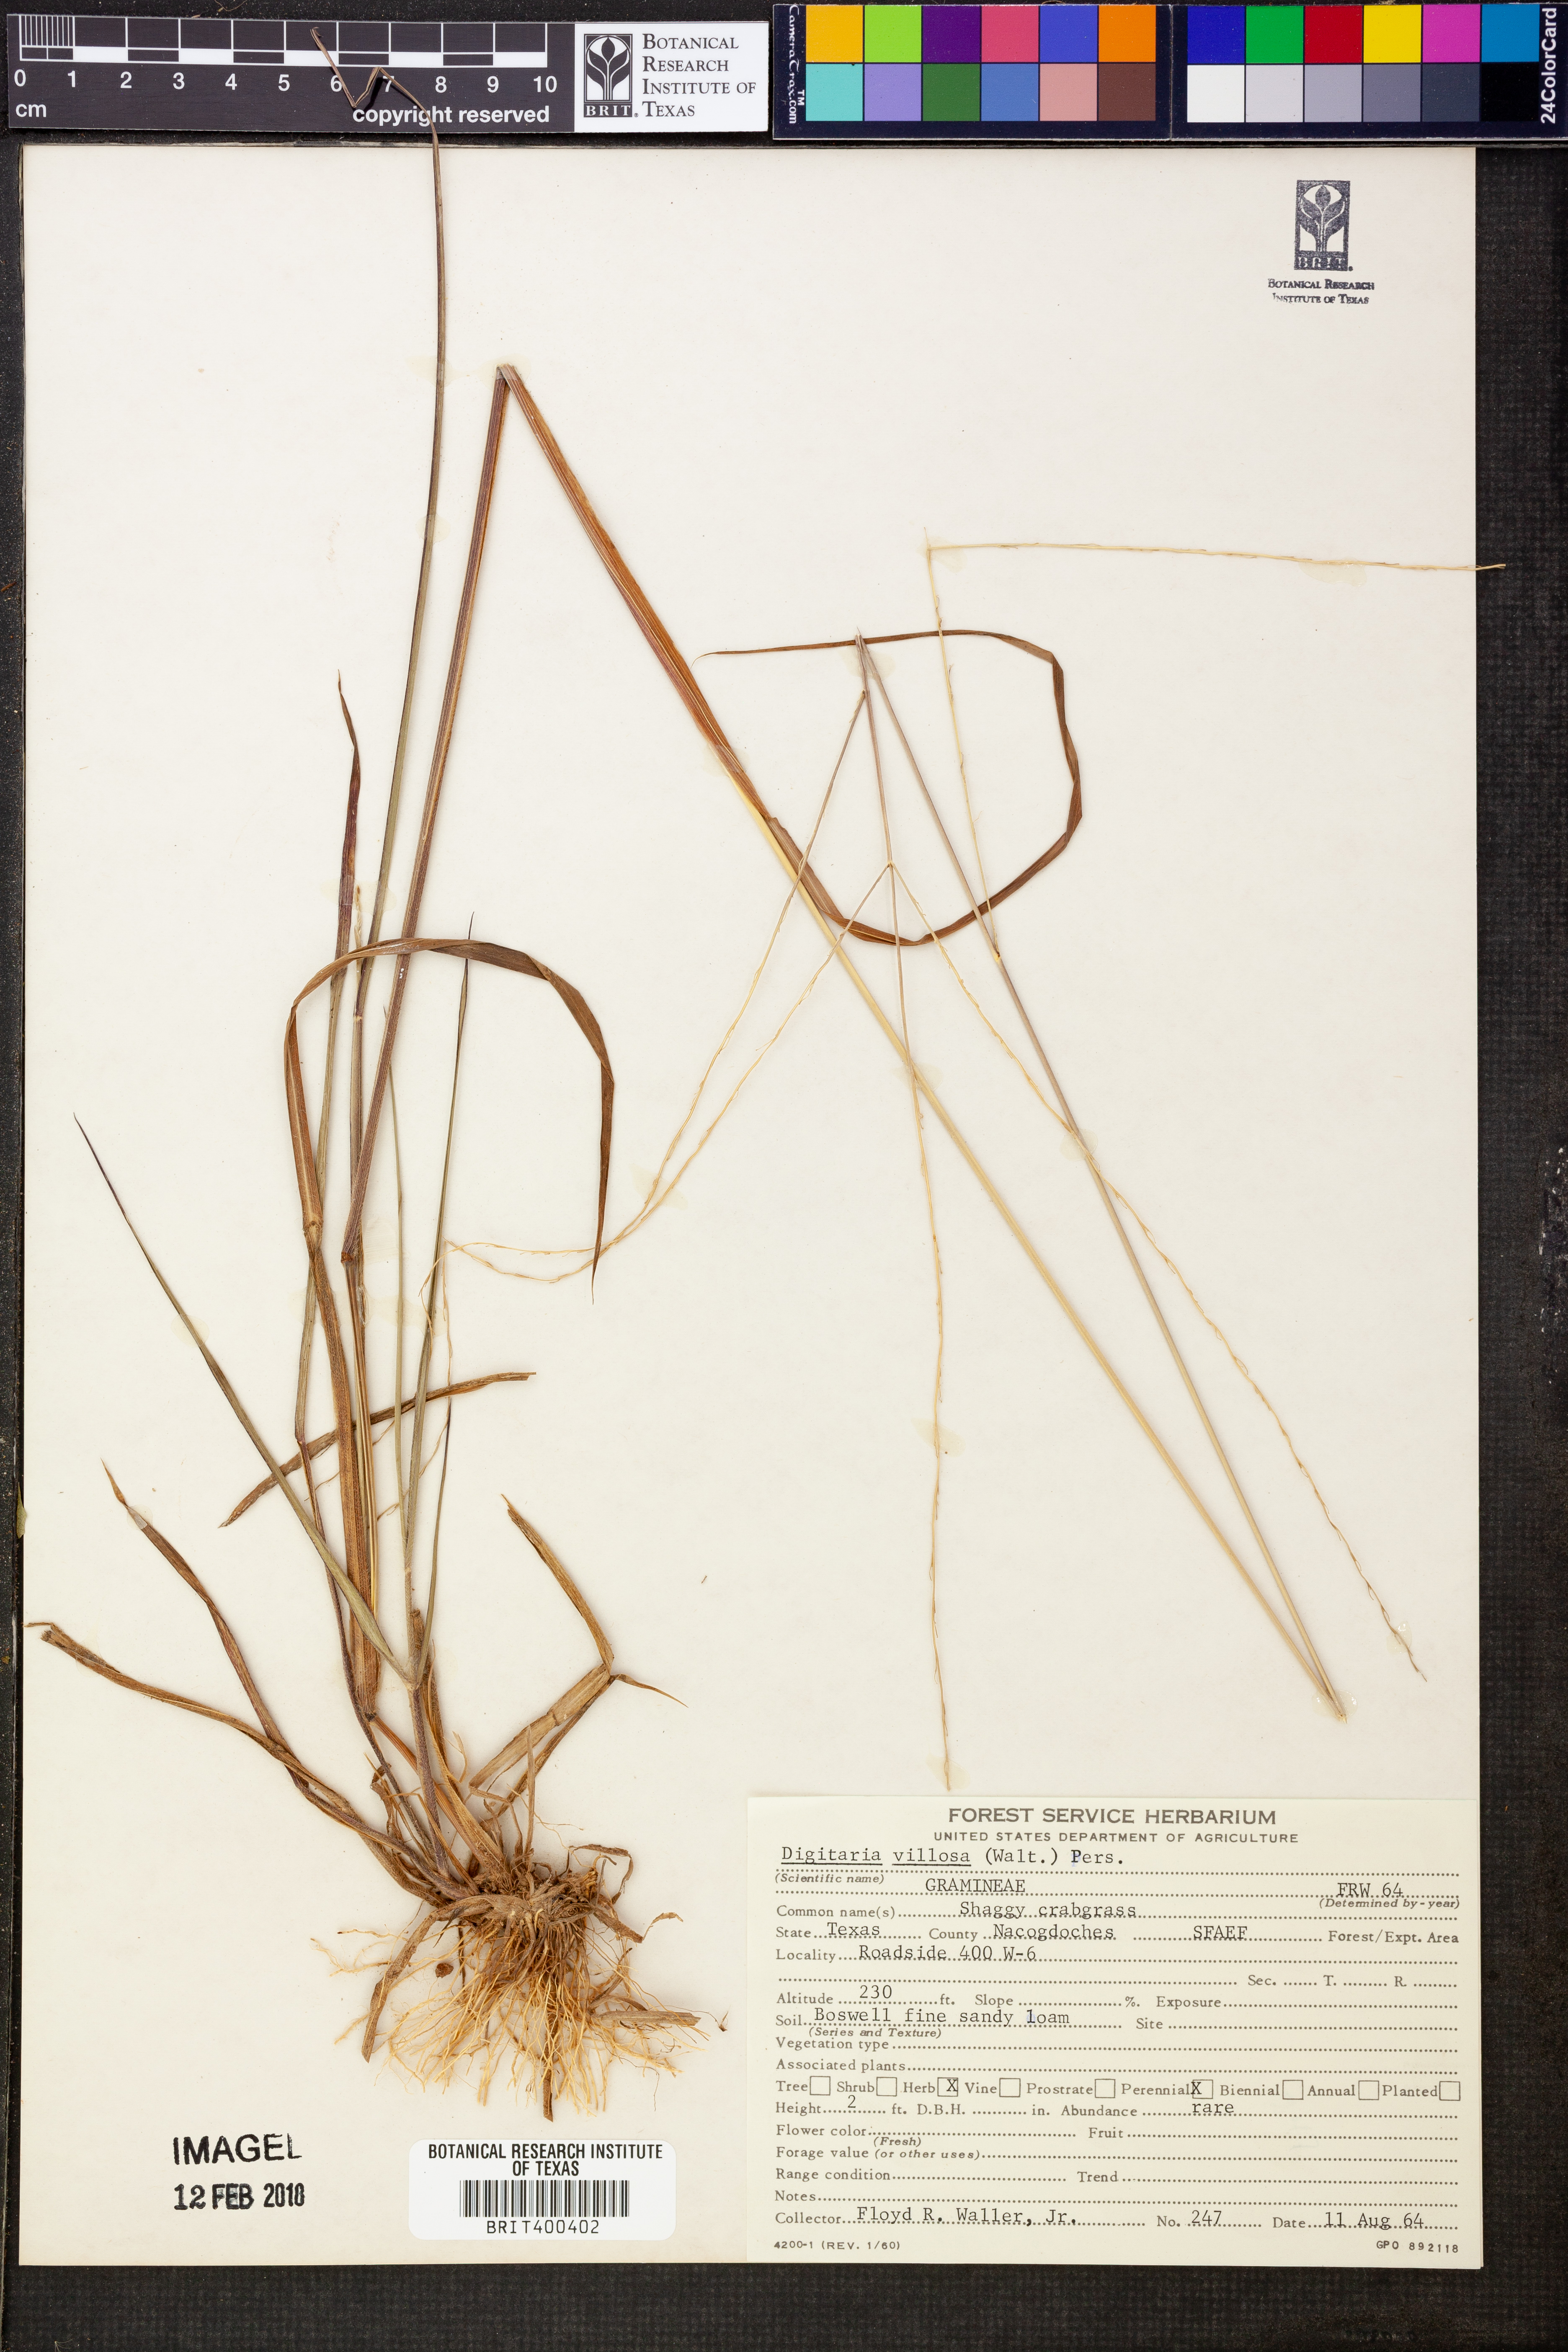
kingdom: Plantae
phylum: Tracheophyta
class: Liliopsida
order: Poales
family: Poaceae
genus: Digitaria
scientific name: Digitaria villosa
